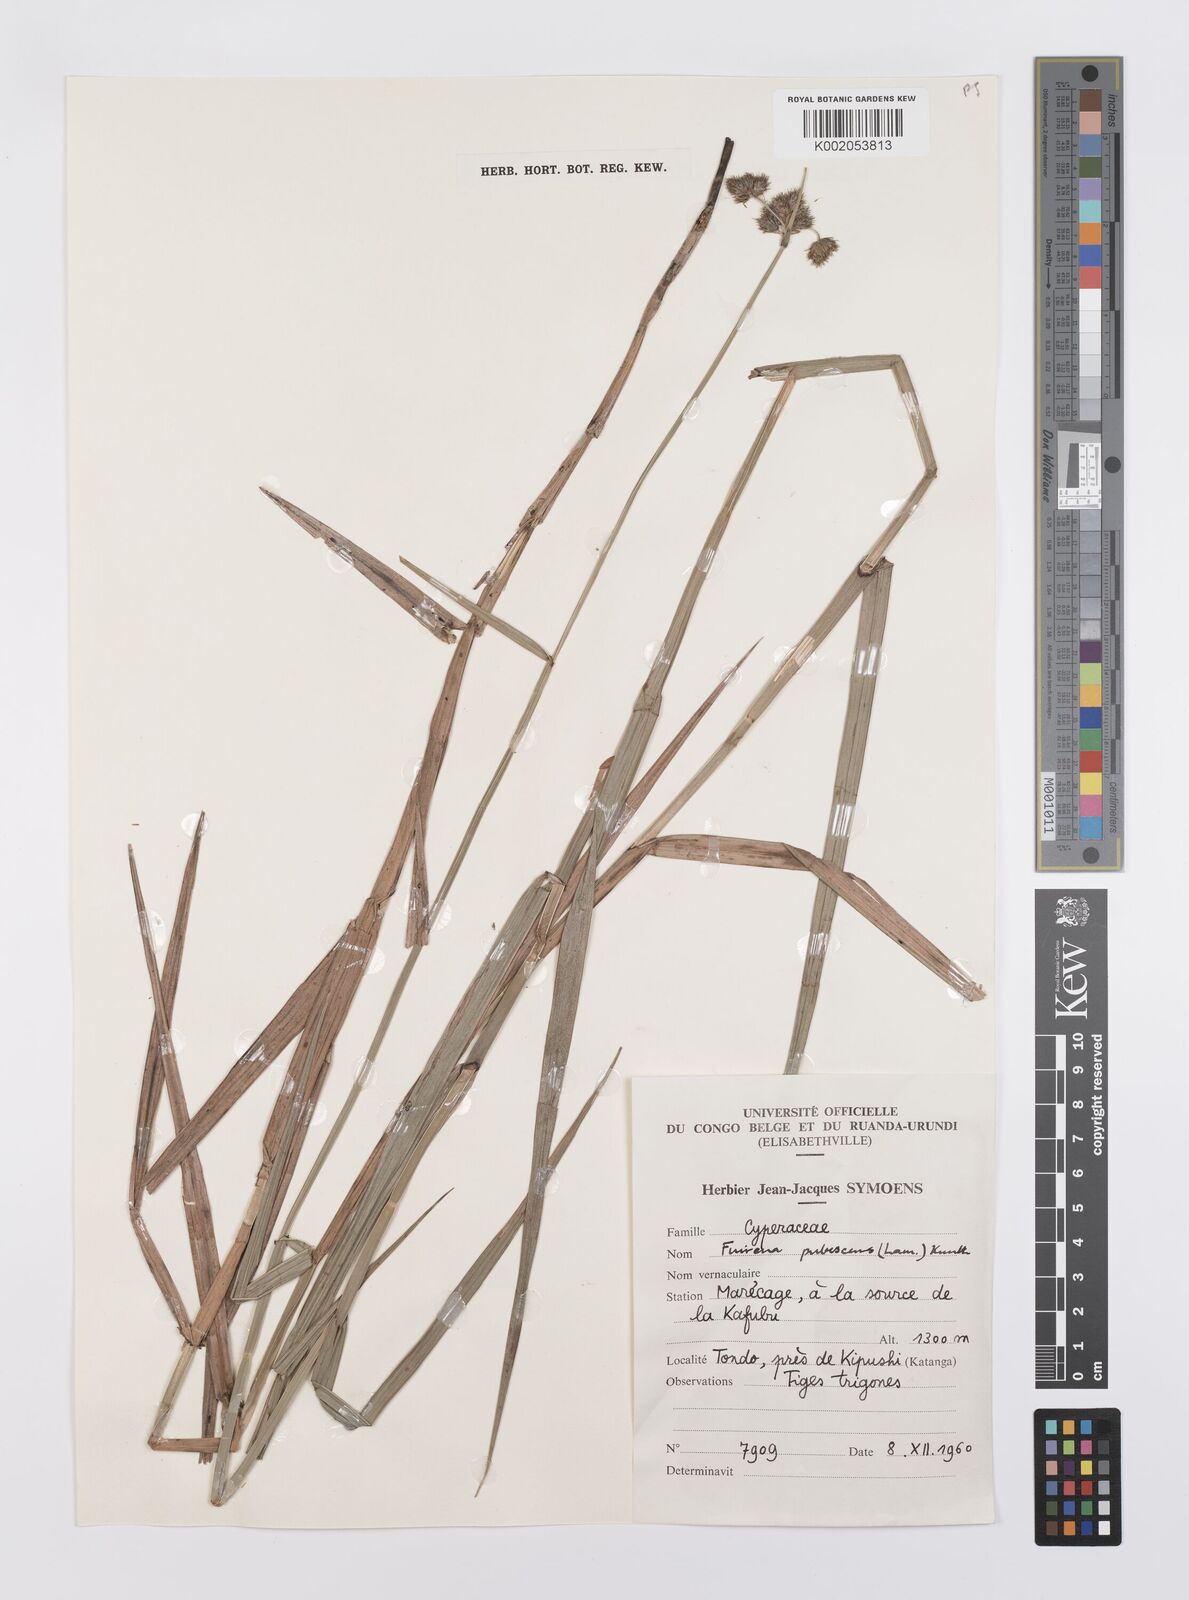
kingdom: Plantae
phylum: Tracheophyta
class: Liliopsida
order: Poales
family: Cyperaceae
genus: Fuirena
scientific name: Fuirena pubescens
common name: Hairy sedge
